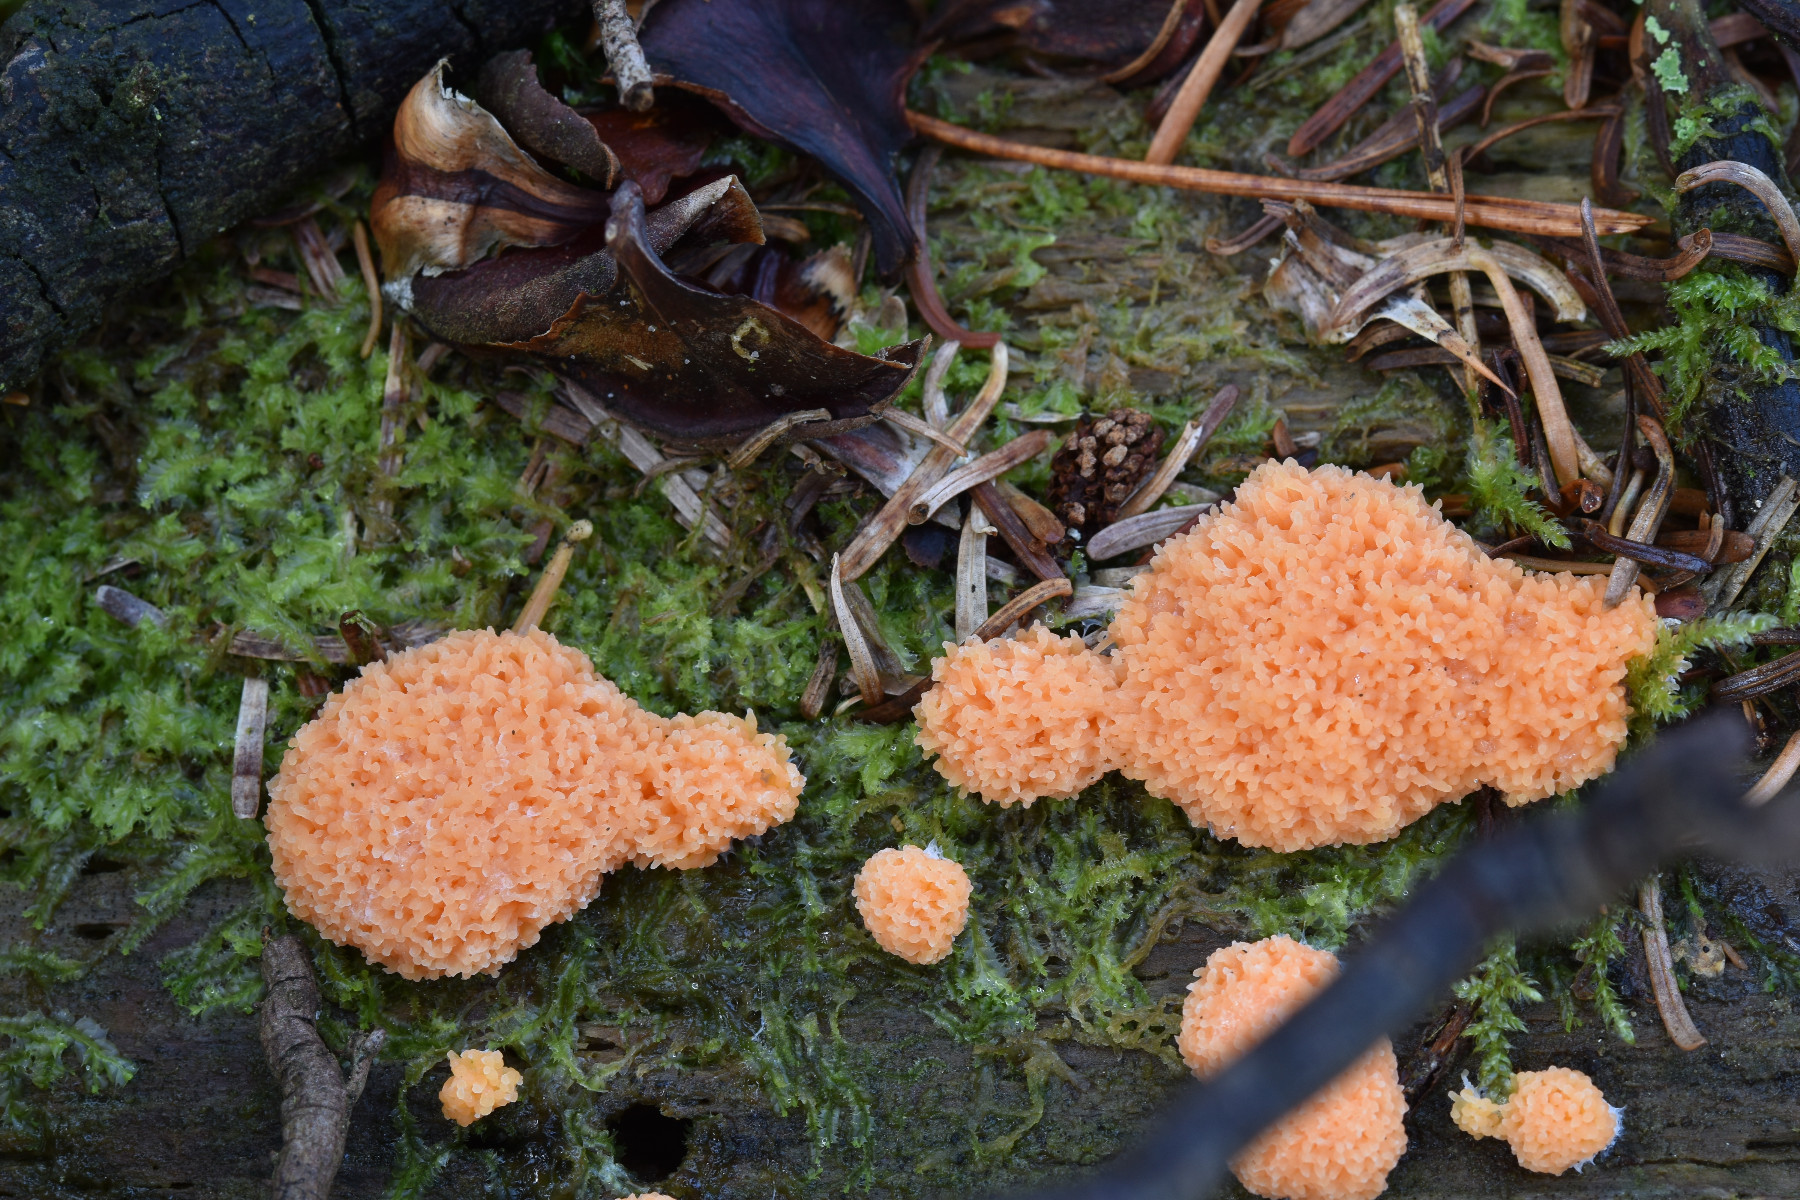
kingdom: Protozoa
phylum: Mycetozoa
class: Myxomycetes
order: Cribrariales
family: Tubiferaceae
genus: Tubifera
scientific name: Tubifera ferruginosa
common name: kanel-støvrør
